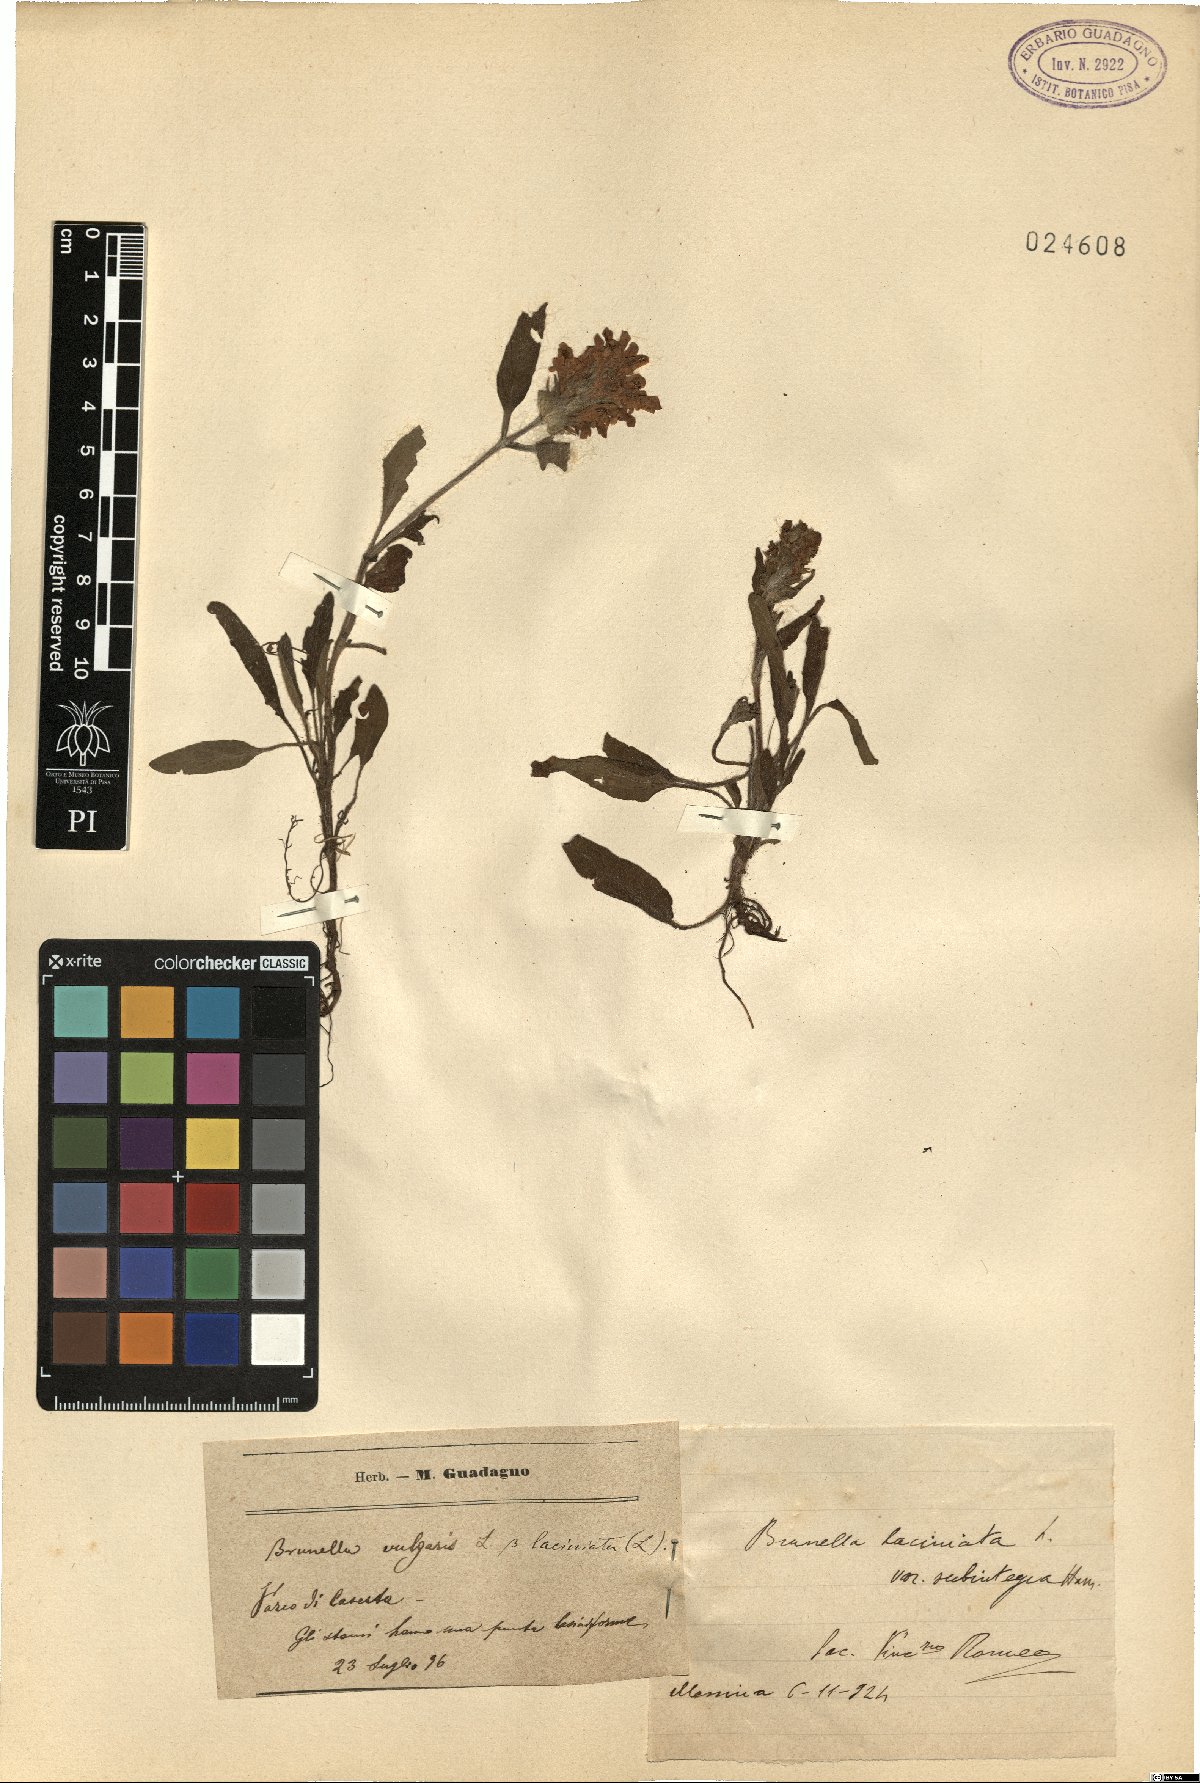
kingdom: Plantae
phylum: Tracheophyta
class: Magnoliopsida
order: Lamiales
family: Lamiaceae
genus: Prunella
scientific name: Prunella laciniata
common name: Cut-leaved selfheal
